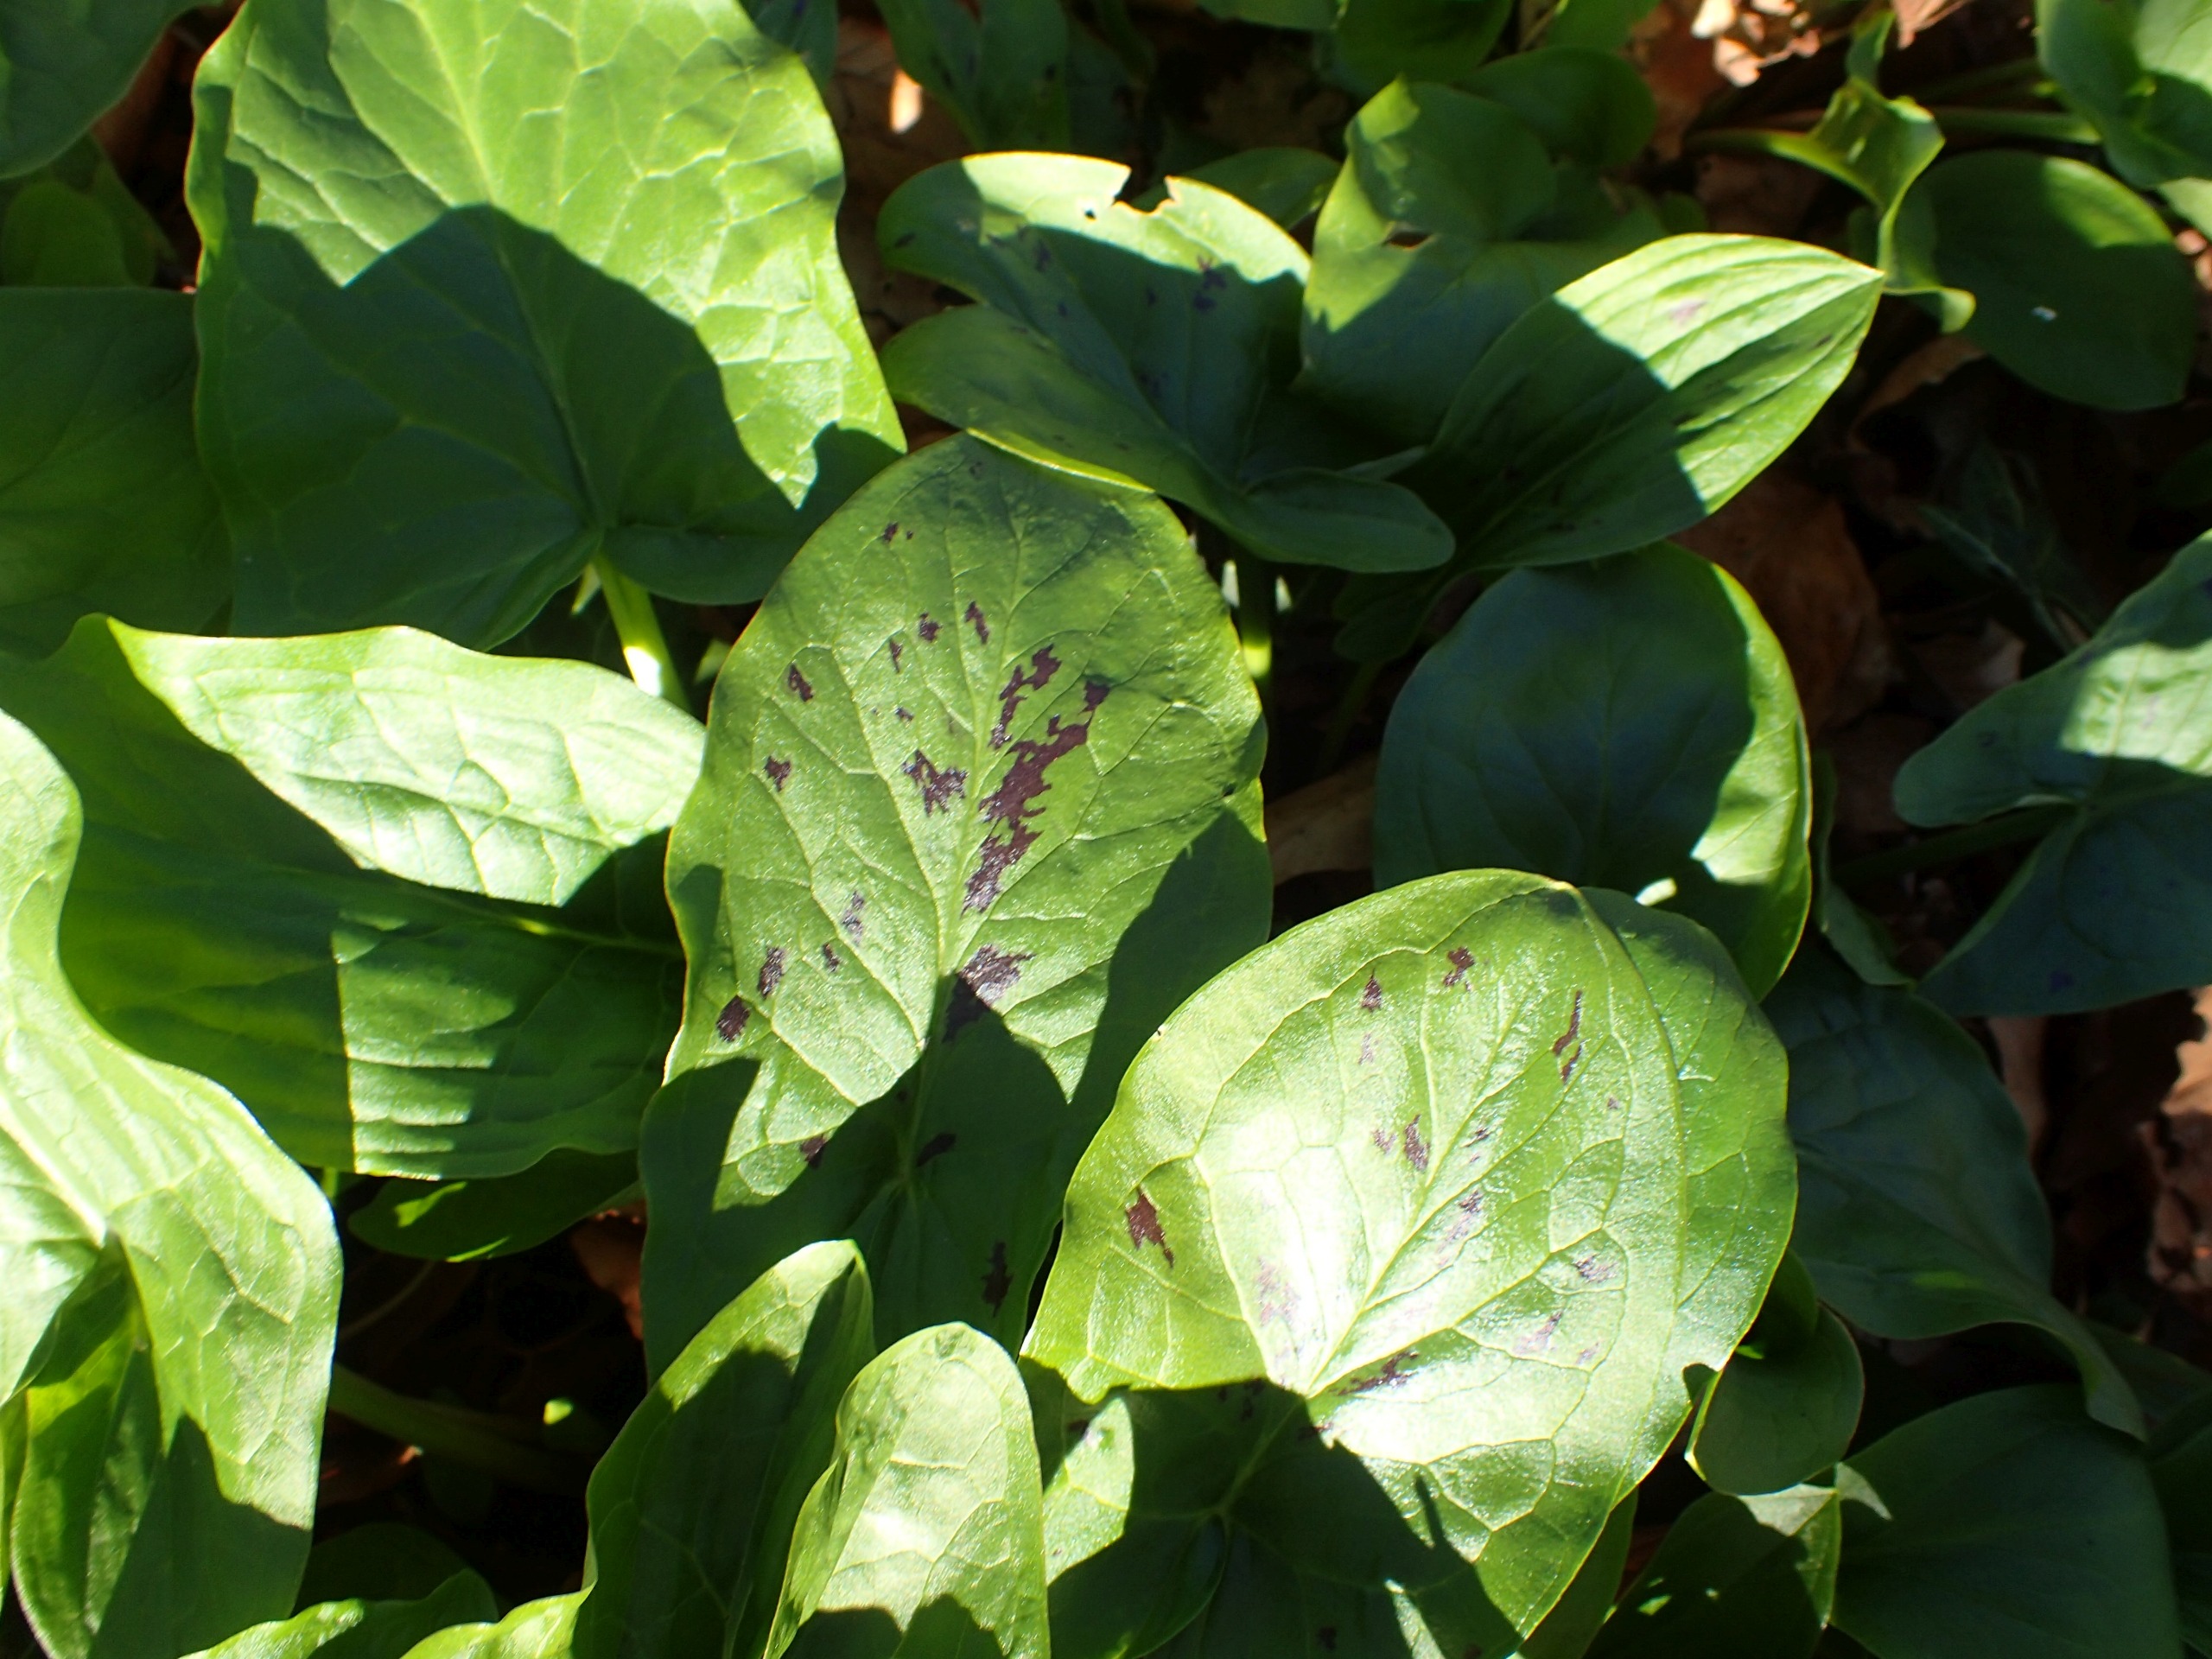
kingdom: Plantae
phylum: Tracheophyta
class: Liliopsida
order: Alismatales
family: Araceae
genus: Arum
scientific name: Arum maculatum
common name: Plettet arum
